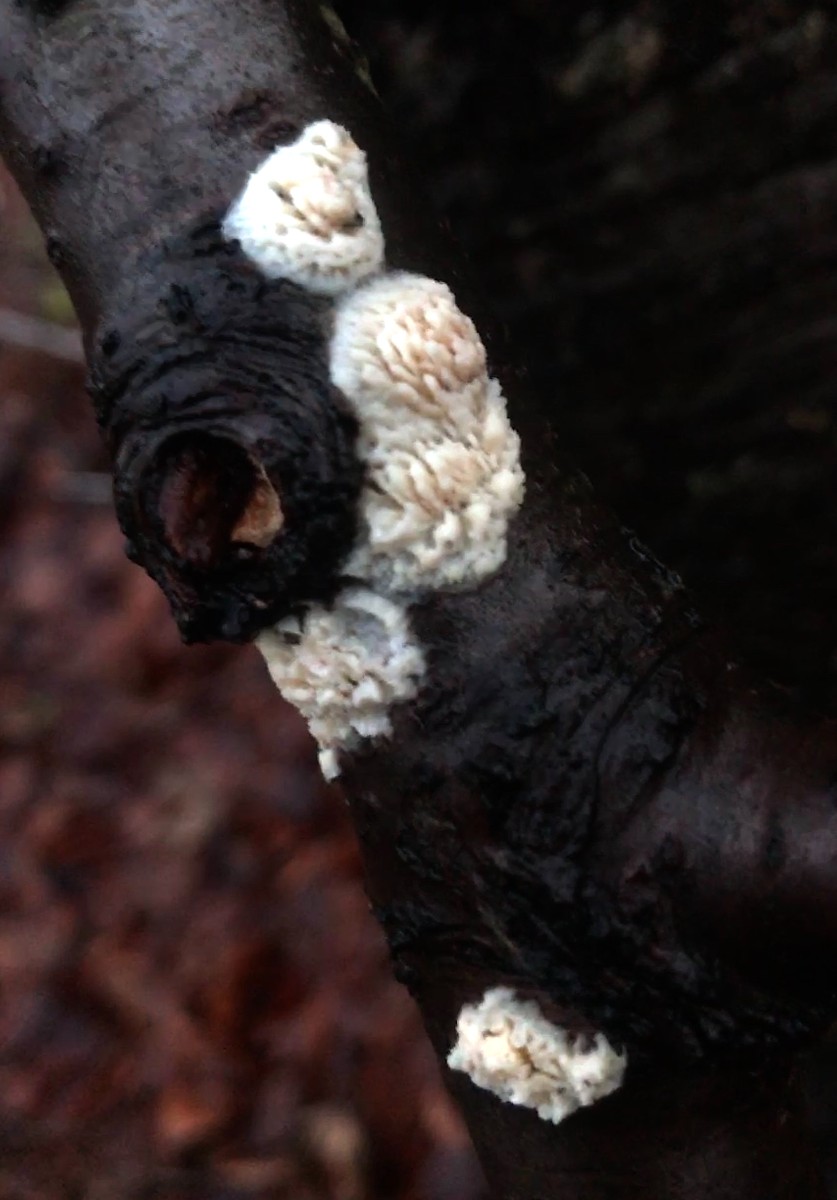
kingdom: Fungi
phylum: Basidiomycota
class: Agaricomycetes
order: Hymenochaetales
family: Schizoporaceae
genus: Xylodon
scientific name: Xylodon radula
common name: grovtandet kalkskind
